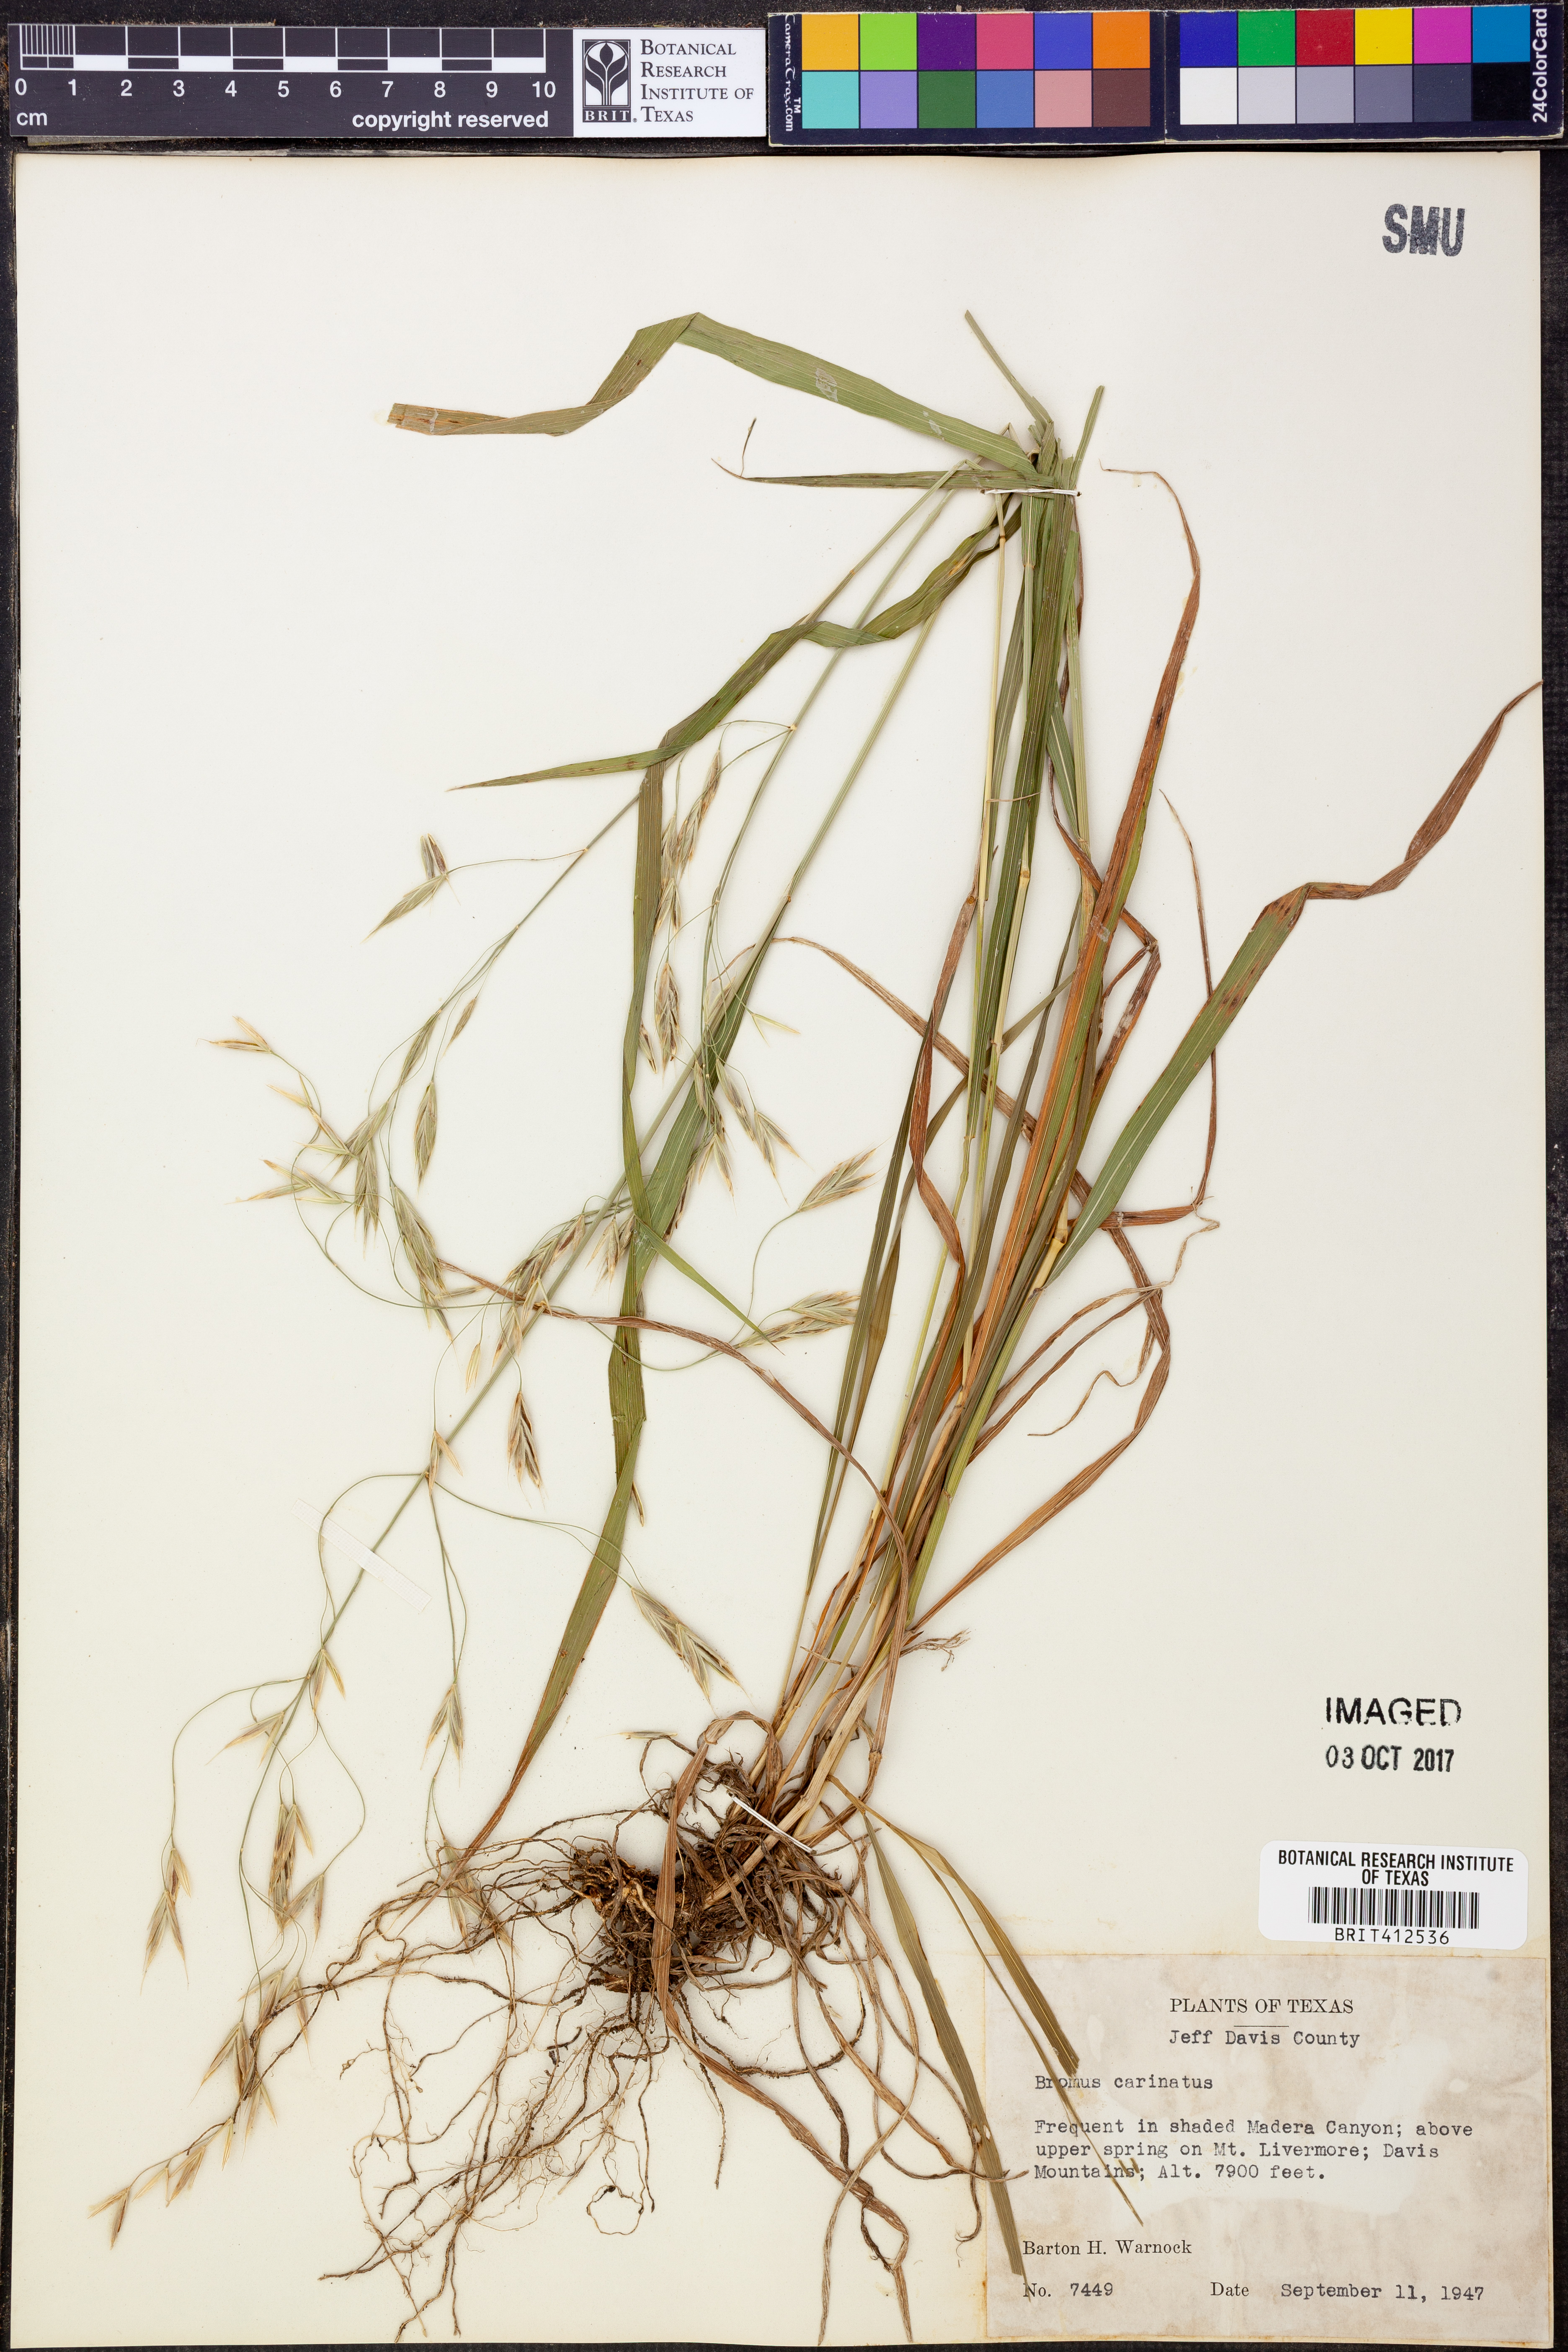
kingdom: Plantae
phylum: Tracheophyta
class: Liliopsida
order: Poales
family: Poaceae
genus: Bromus
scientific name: Bromus carinatus
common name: Mountain brome
